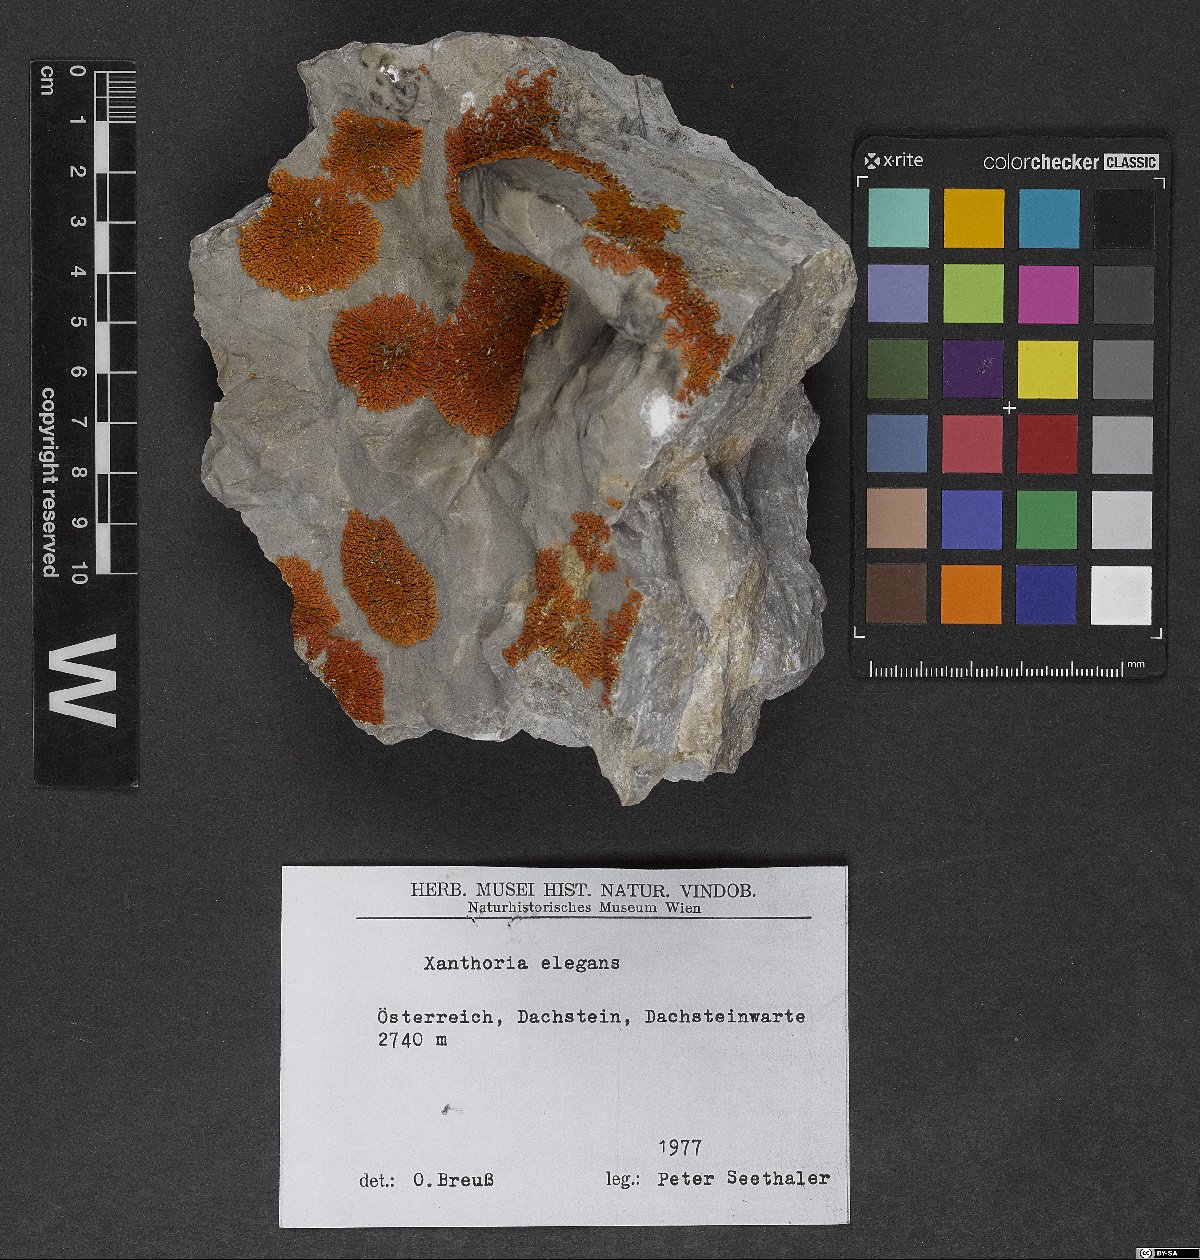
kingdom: Fungi
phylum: Ascomycota
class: Lecanoromycetes
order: Teloschistales
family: Teloschistaceae
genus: Xanthoria
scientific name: Xanthoria elegans
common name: Elegant sunburst lichen
